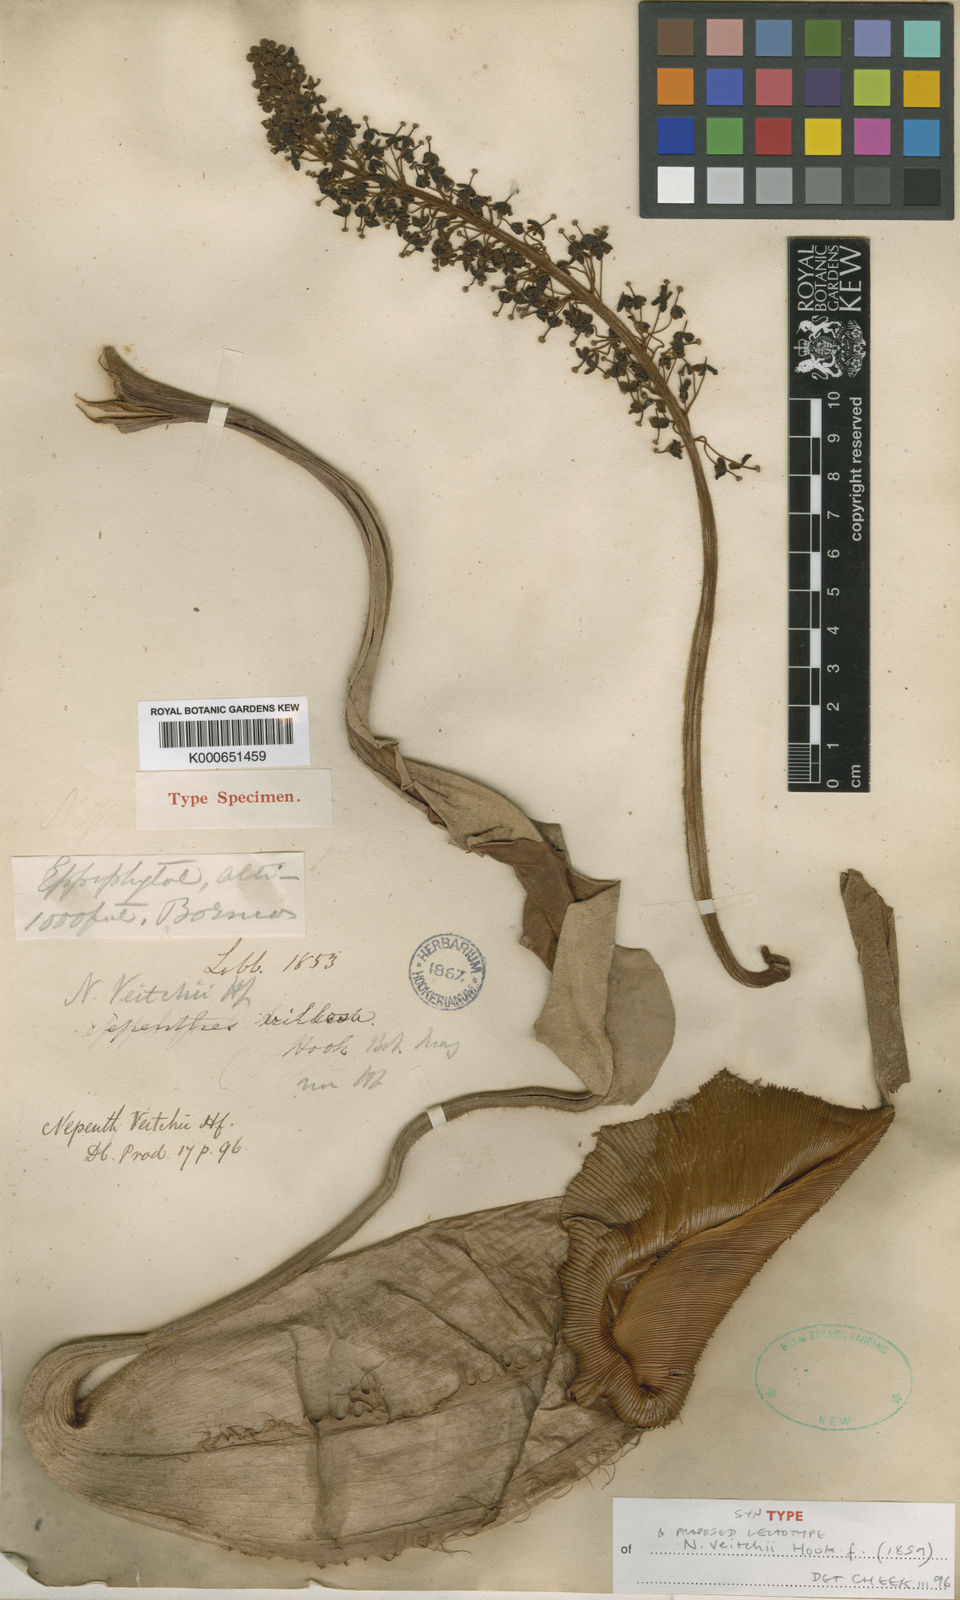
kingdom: Plantae
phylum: Tracheophyta
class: Magnoliopsida
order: Caryophyllales
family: Nepenthaceae
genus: Nepenthes
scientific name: Nepenthes veitchii
